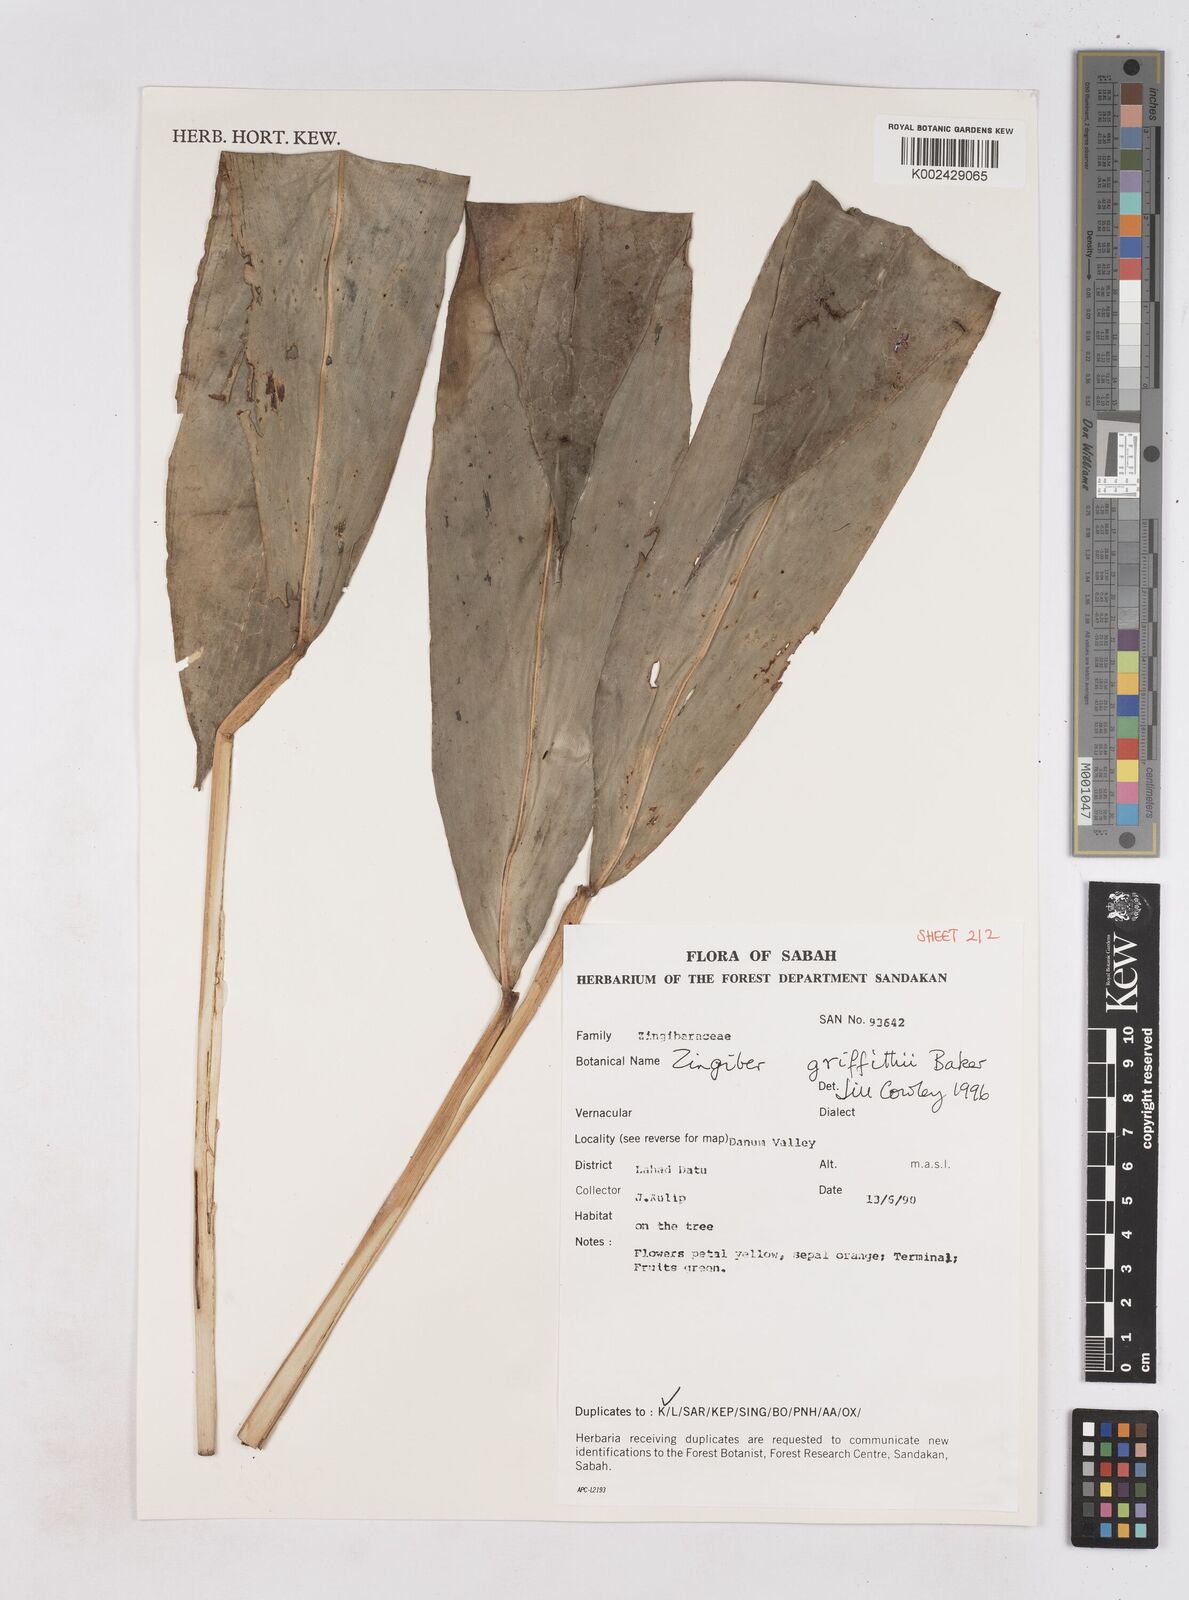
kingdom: Plantae
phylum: Tracheophyta
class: Liliopsida
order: Zingiberales
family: Zingiberaceae
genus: Zingiber
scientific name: Zingiber griffithii
